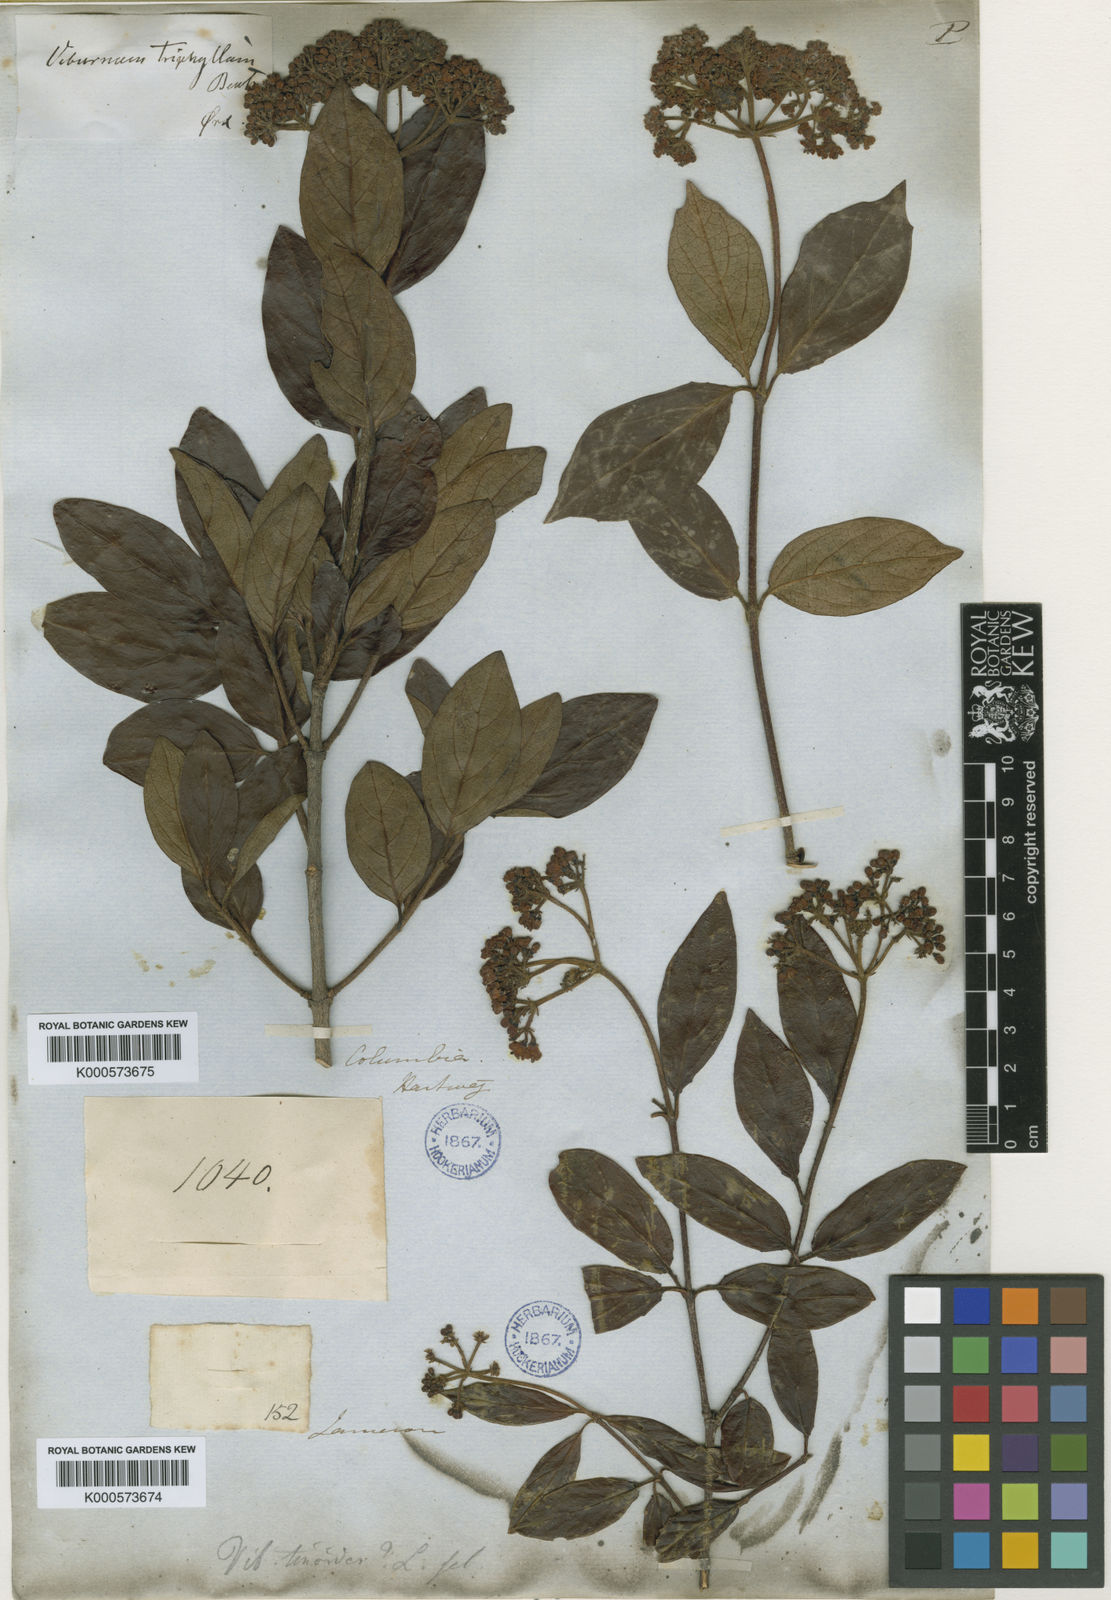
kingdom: Plantae
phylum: Tracheophyta
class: Magnoliopsida
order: Dipsacales
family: Viburnaceae
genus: Viburnum
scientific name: Viburnum triphyllum
